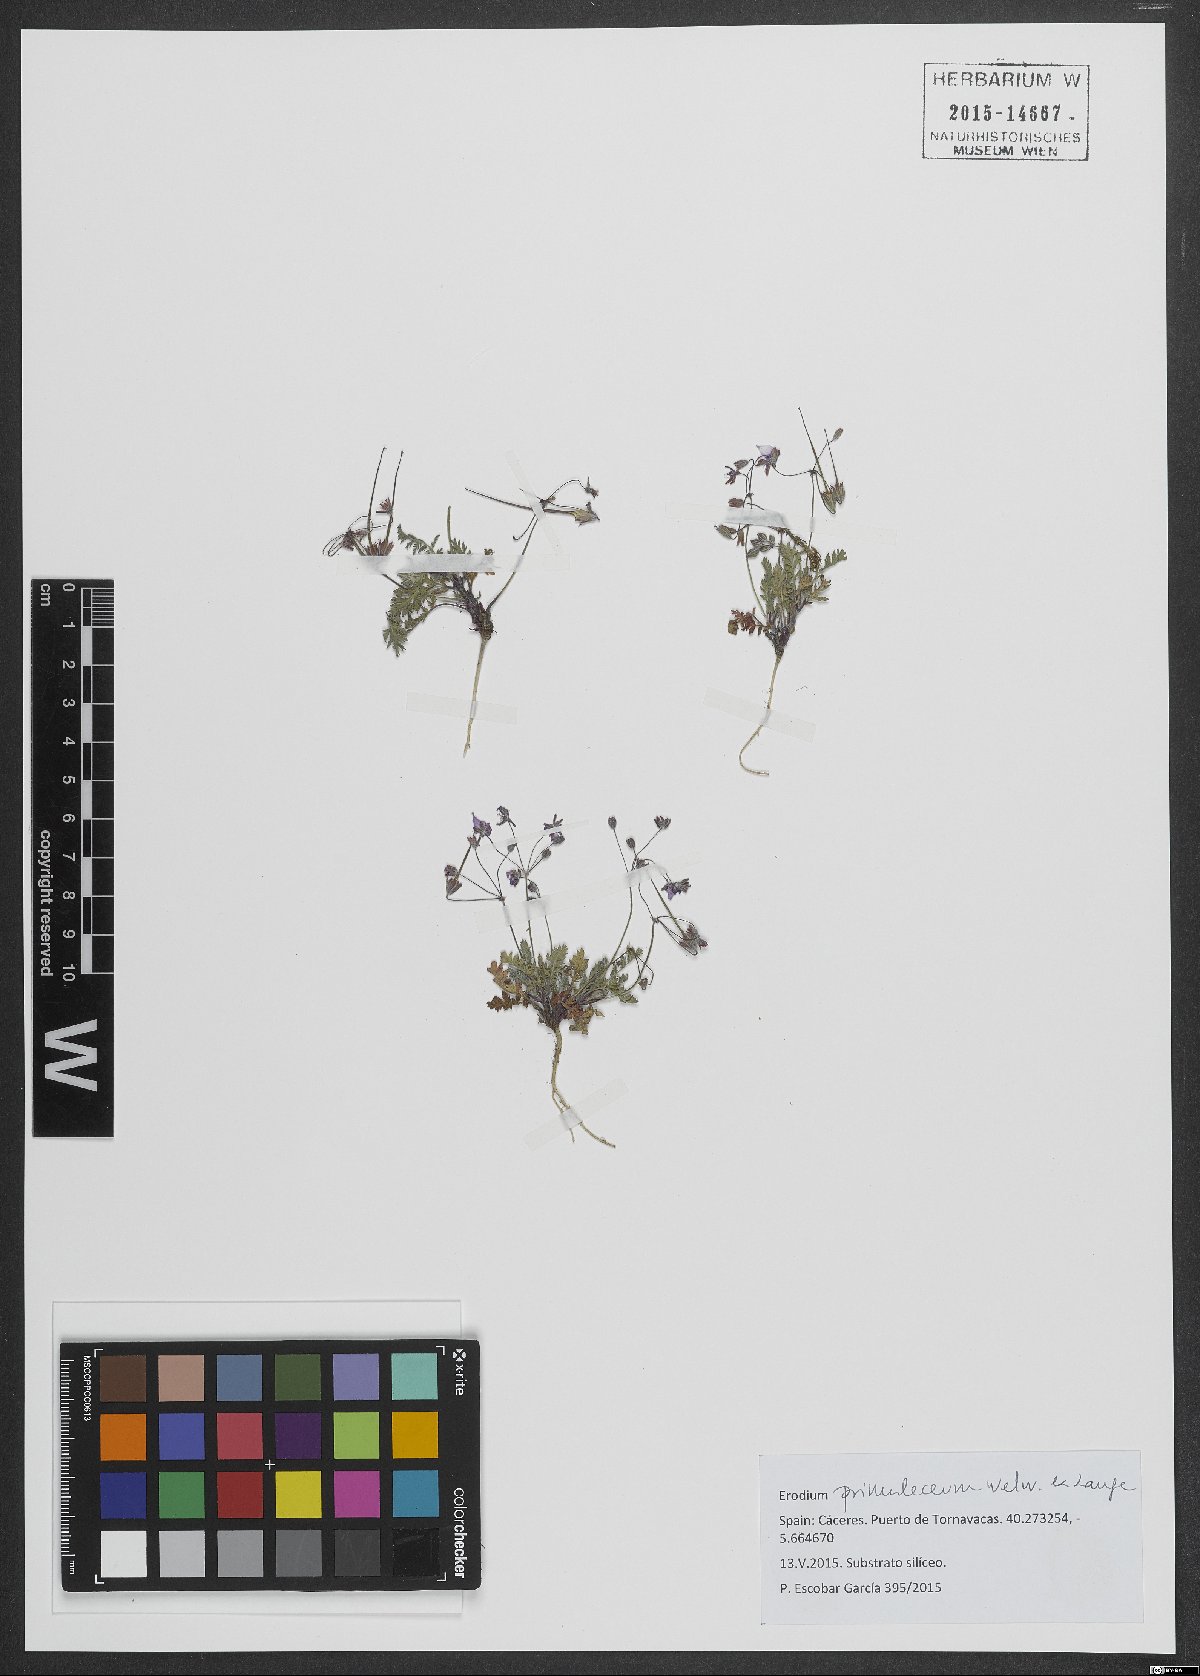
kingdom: Plantae
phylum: Tracheophyta
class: Magnoliopsida
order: Geraniales
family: Geraniaceae
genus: Erodium
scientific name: Erodium maculatum
